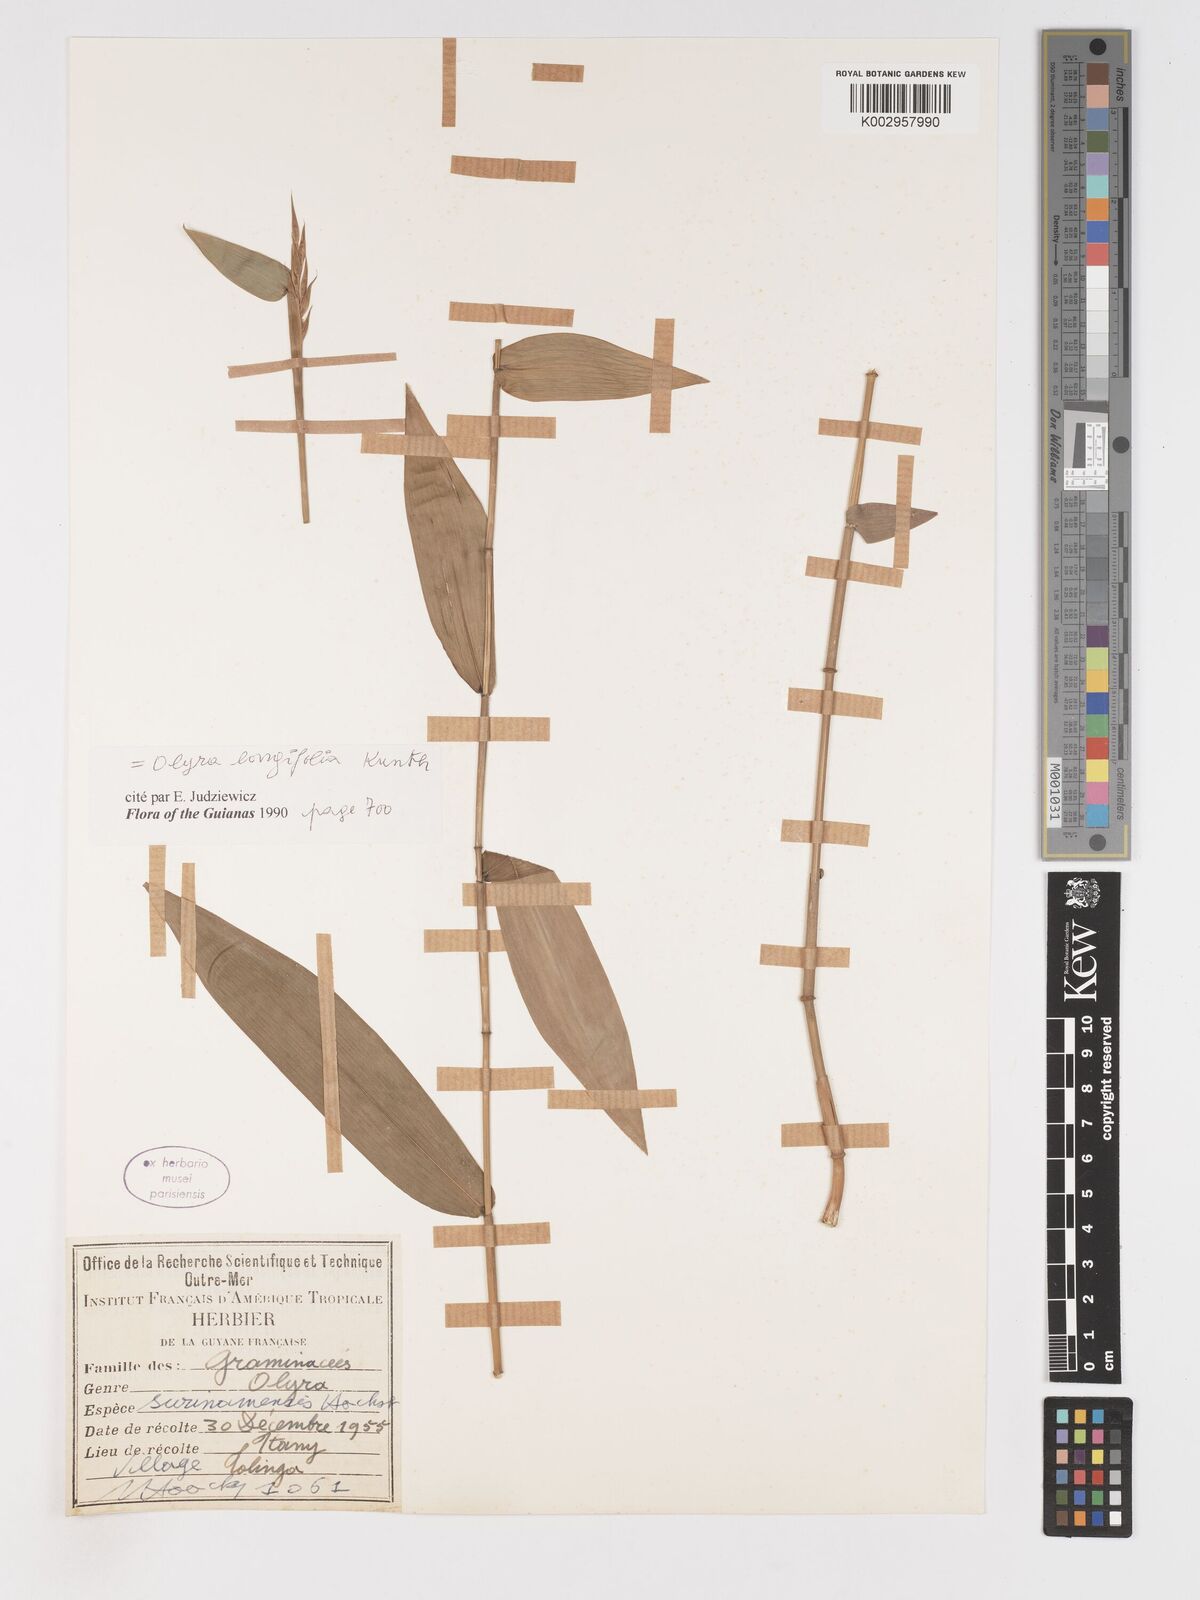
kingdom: Plantae
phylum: Tracheophyta
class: Liliopsida
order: Poales
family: Poaceae
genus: Olyra
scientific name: Olyra longifolia
